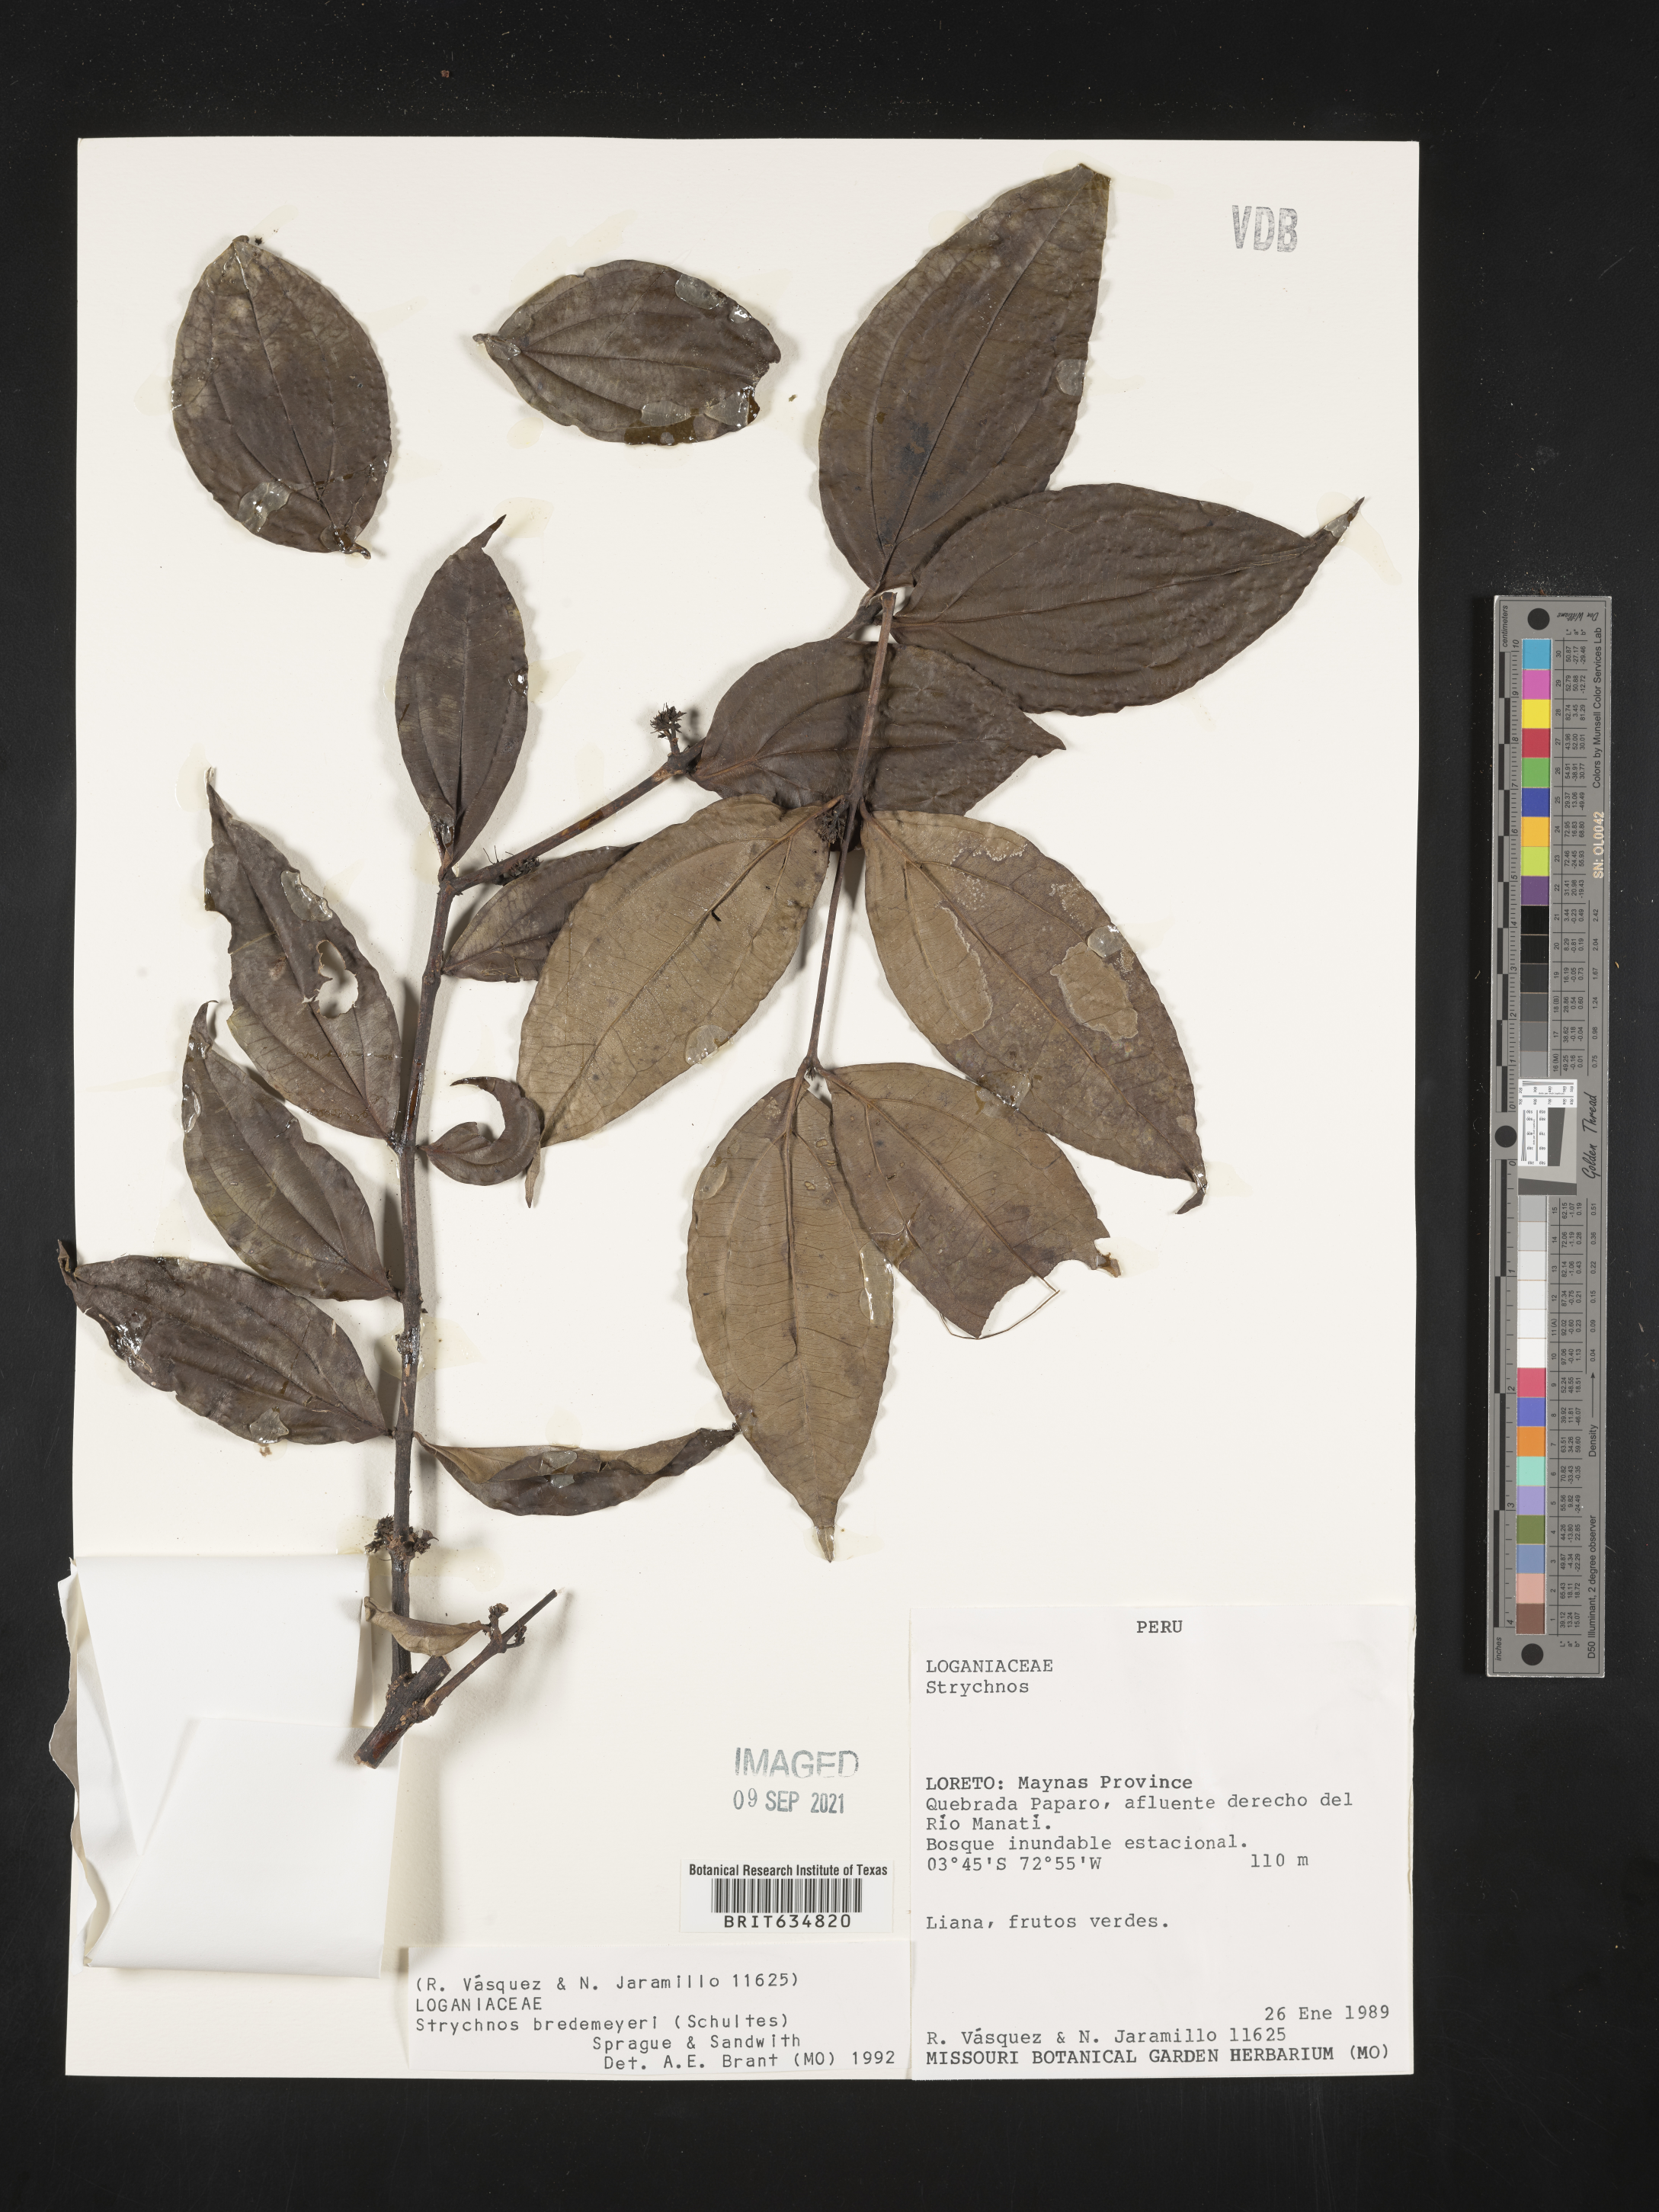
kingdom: Plantae
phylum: Tracheophyta
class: Magnoliopsida
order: Gentianales
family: Loganiaceae
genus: Strychnos
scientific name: Strychnos
